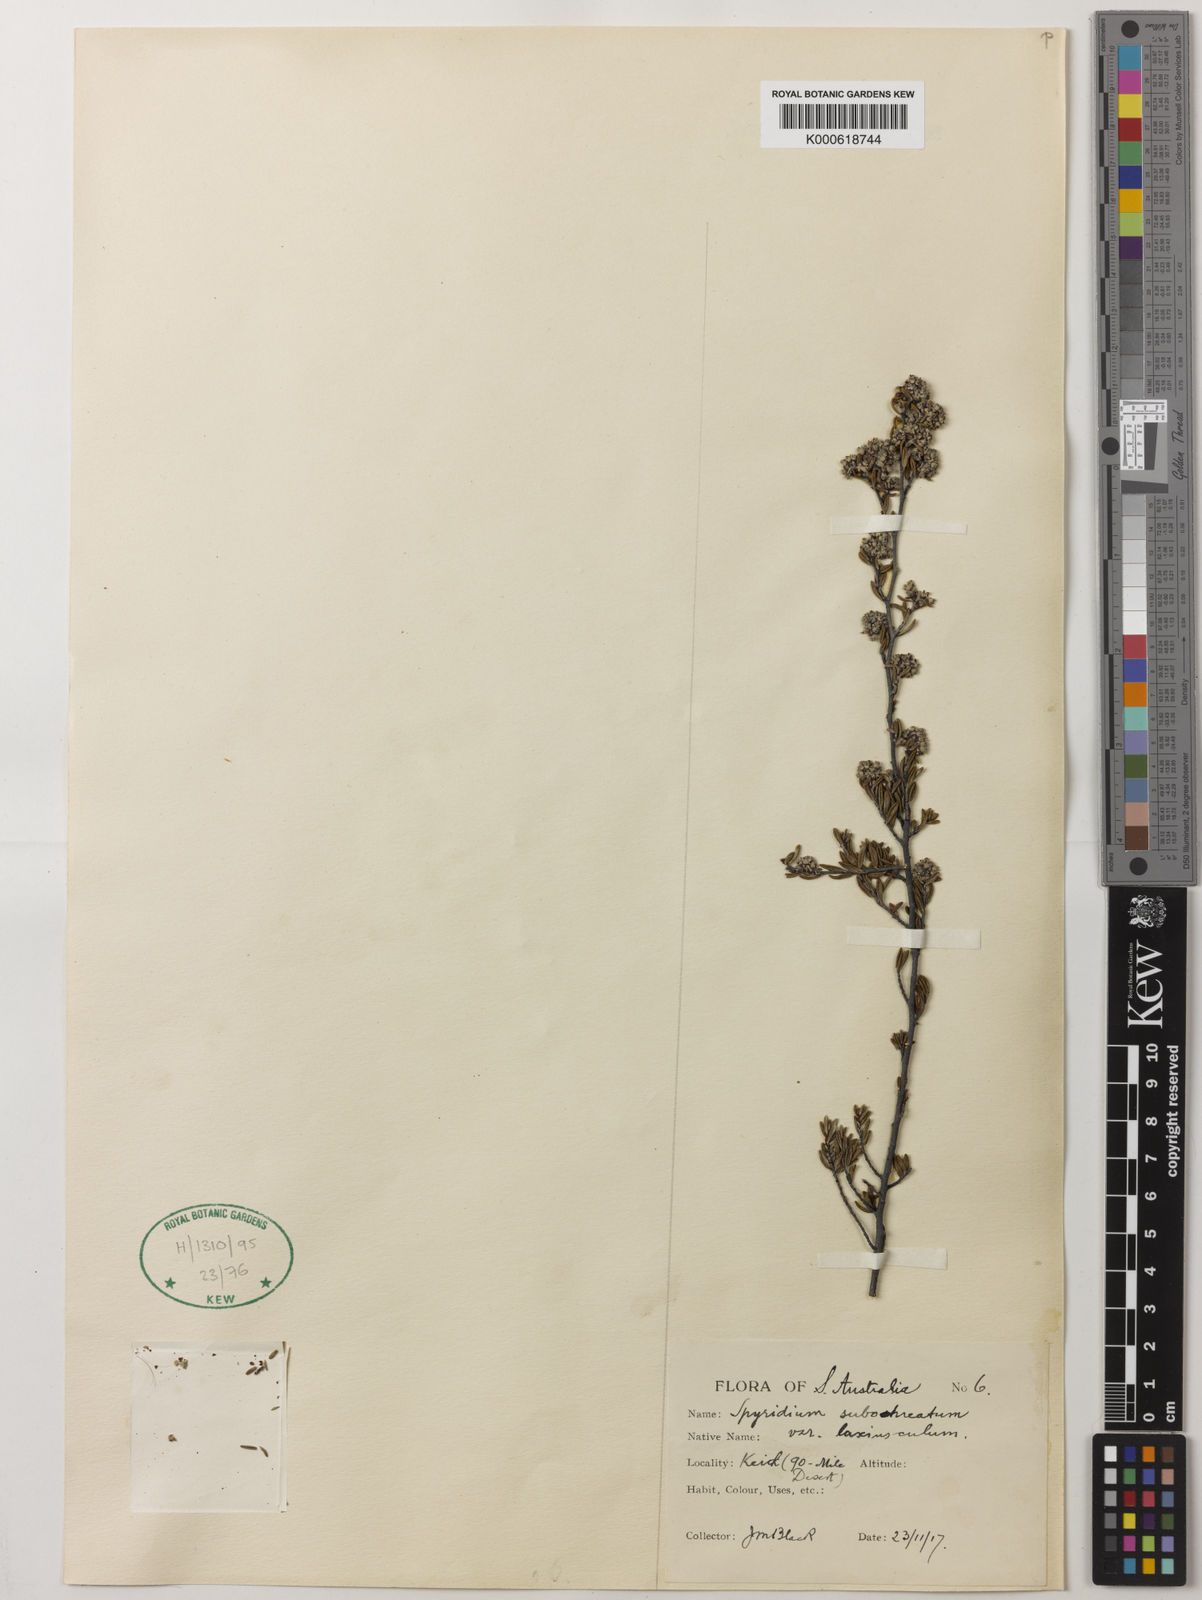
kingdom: Plantae
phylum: Tracheophyta
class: Magnoliopsida
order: Rosales
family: Rhamnaceae
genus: Spyridium
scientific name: Spyridium
